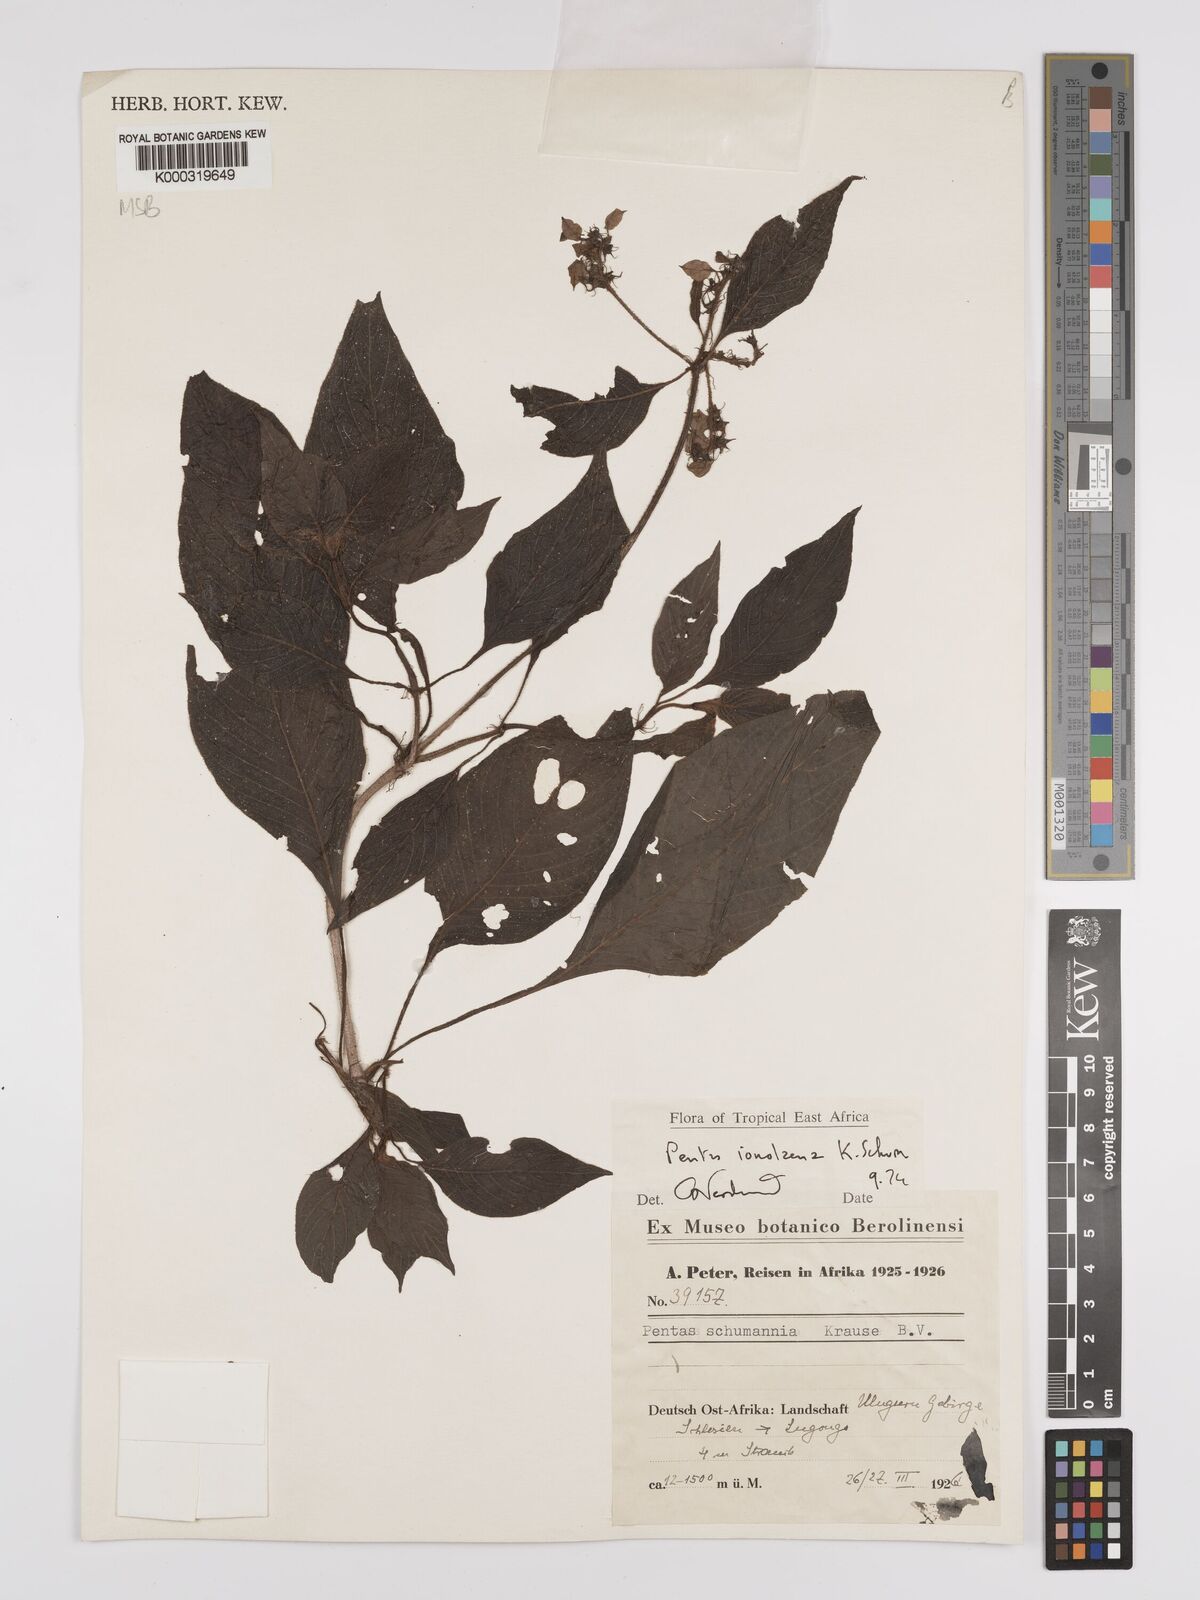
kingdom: Plantae
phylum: Tracheophyta
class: Magnoliopsida
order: Gentianales
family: Rubiaceae
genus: Phyllopentas
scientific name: Phyllopentas ionolaena
